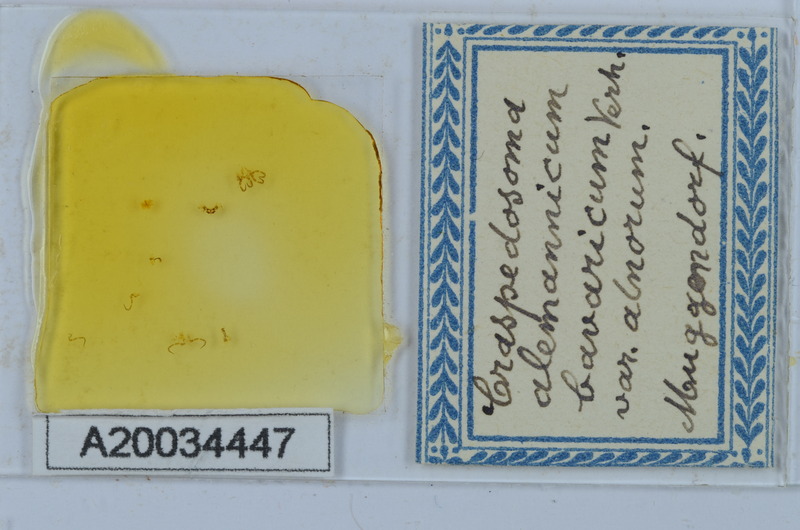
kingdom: Animalia
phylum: Arthropoda
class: Diplopoda
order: Chordeumatida
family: Craspedosomatidae
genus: Craspedosoma
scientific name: Craspedosoma rawlinsii
